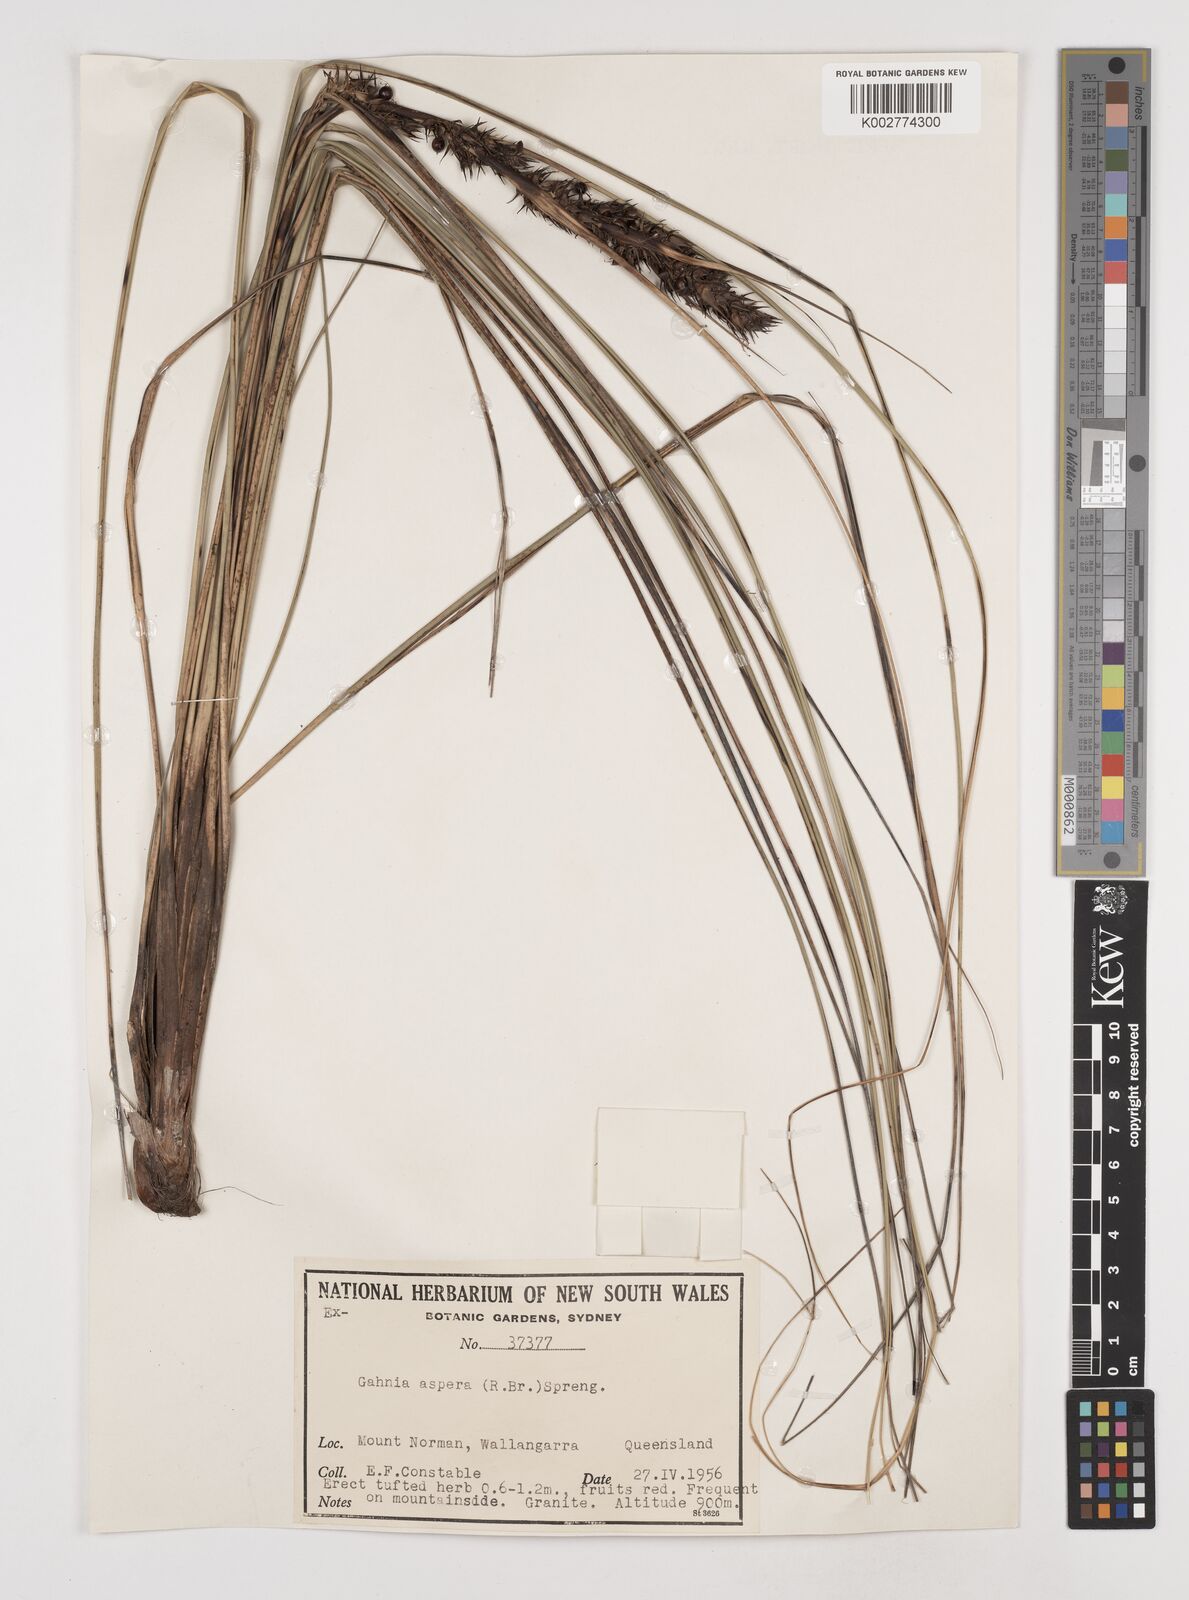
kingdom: Plantae
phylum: Tracheophyta
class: Liliopsida
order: Poales
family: Cyperaceae
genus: Gahnia
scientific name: Gahnia aspera
